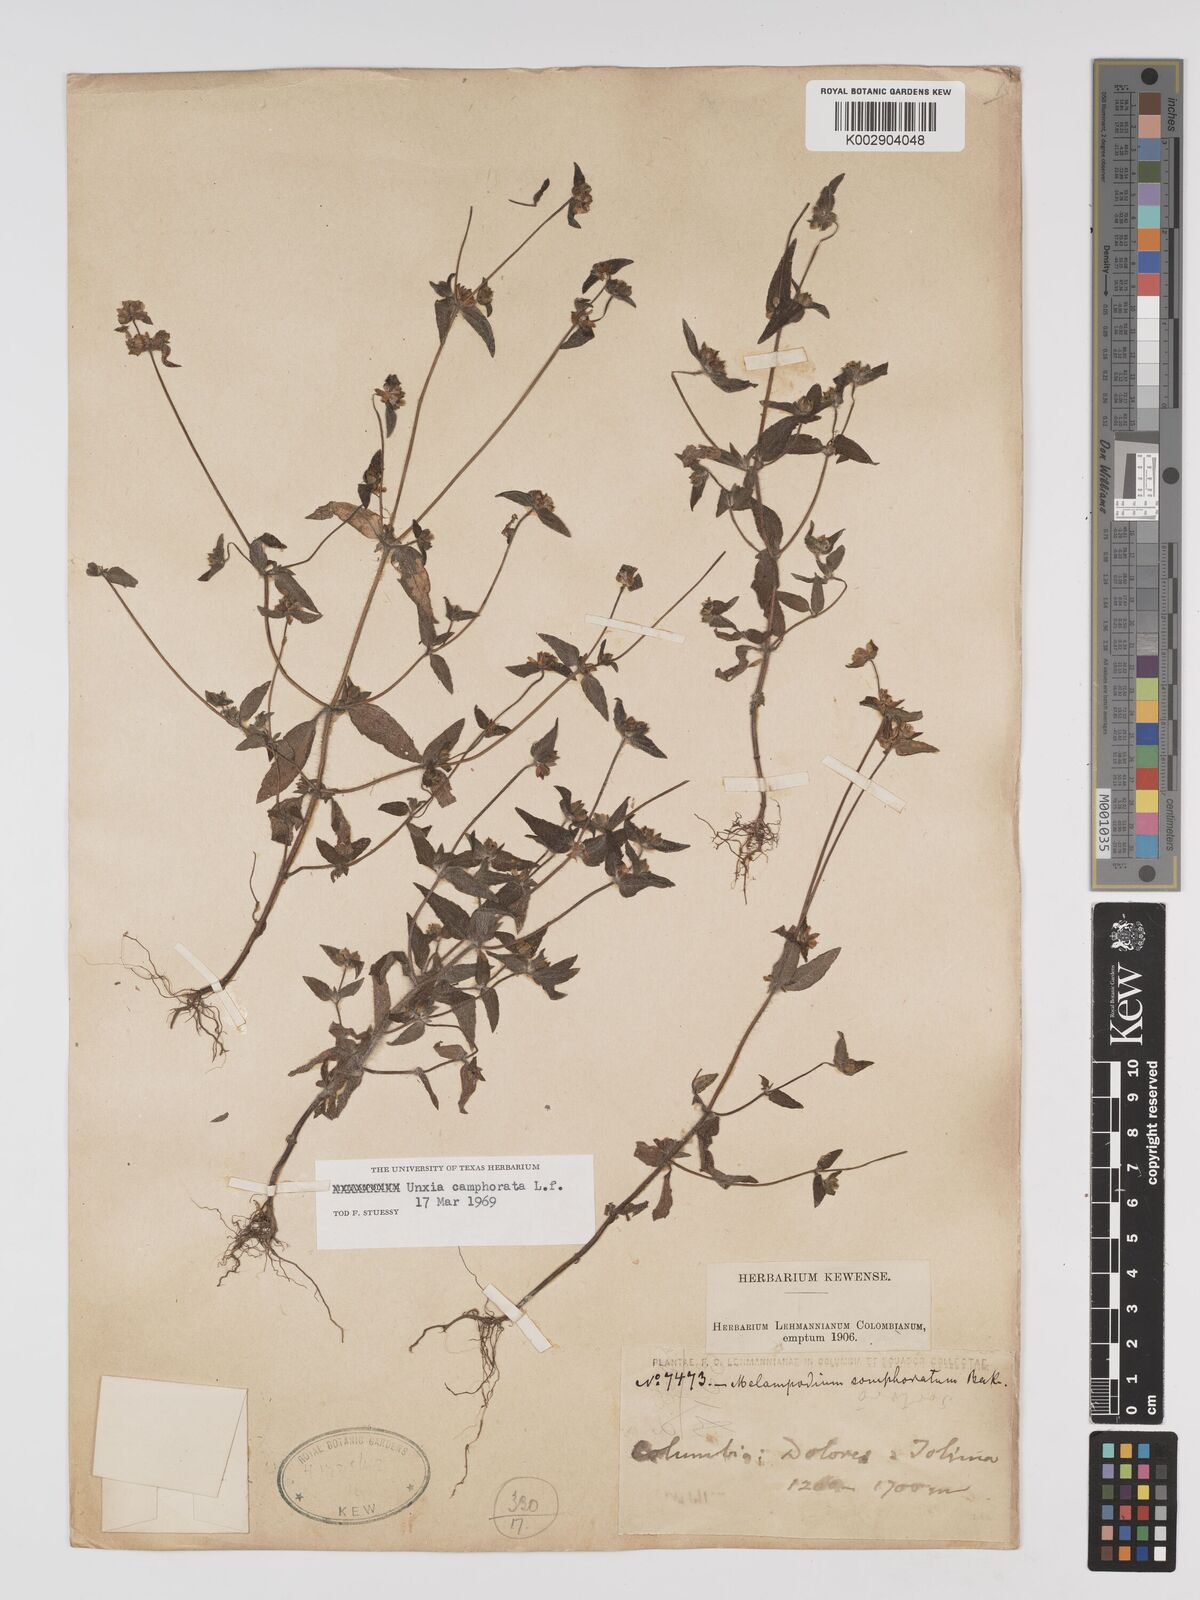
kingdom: Plantae
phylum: Tracheophyta
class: Magnoliopsida
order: Asterales
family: Asteraceae
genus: Unxia
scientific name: Unxia camphorata
